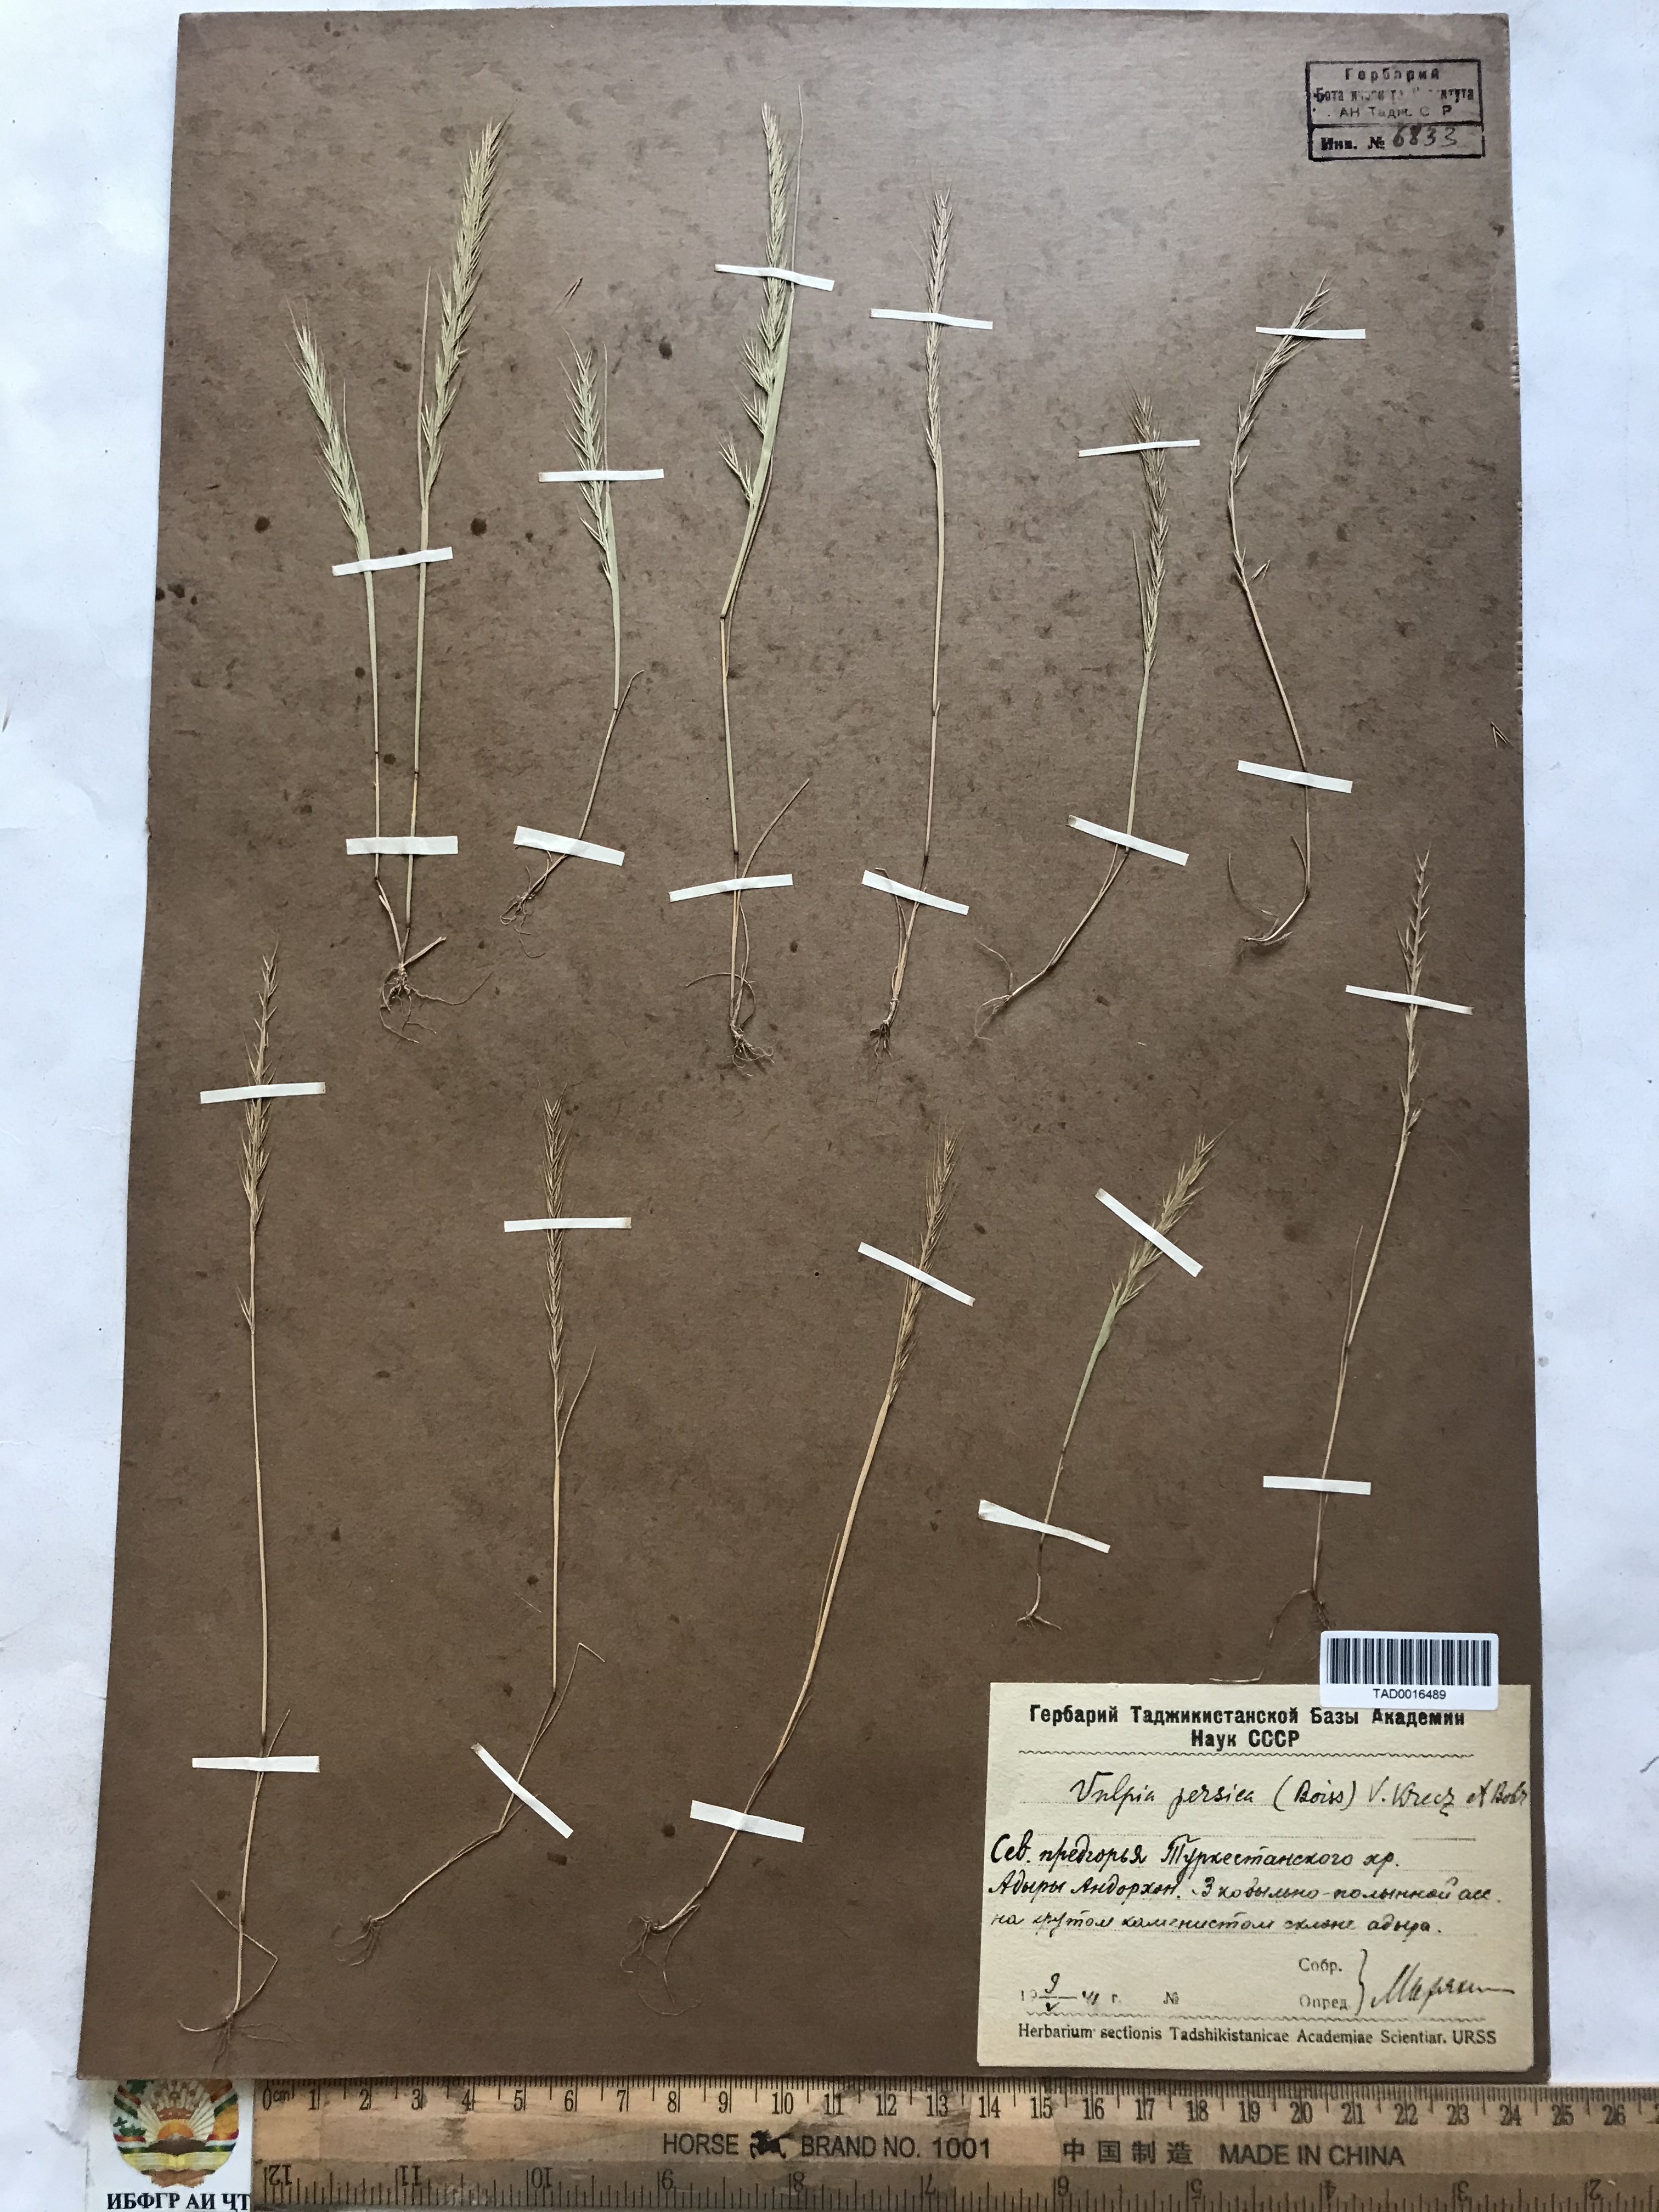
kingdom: Plantae
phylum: Tracheophyta
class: Liliopsida
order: Poales
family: Poaceae
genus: Festuca
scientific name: Festuca Vulpia persica
